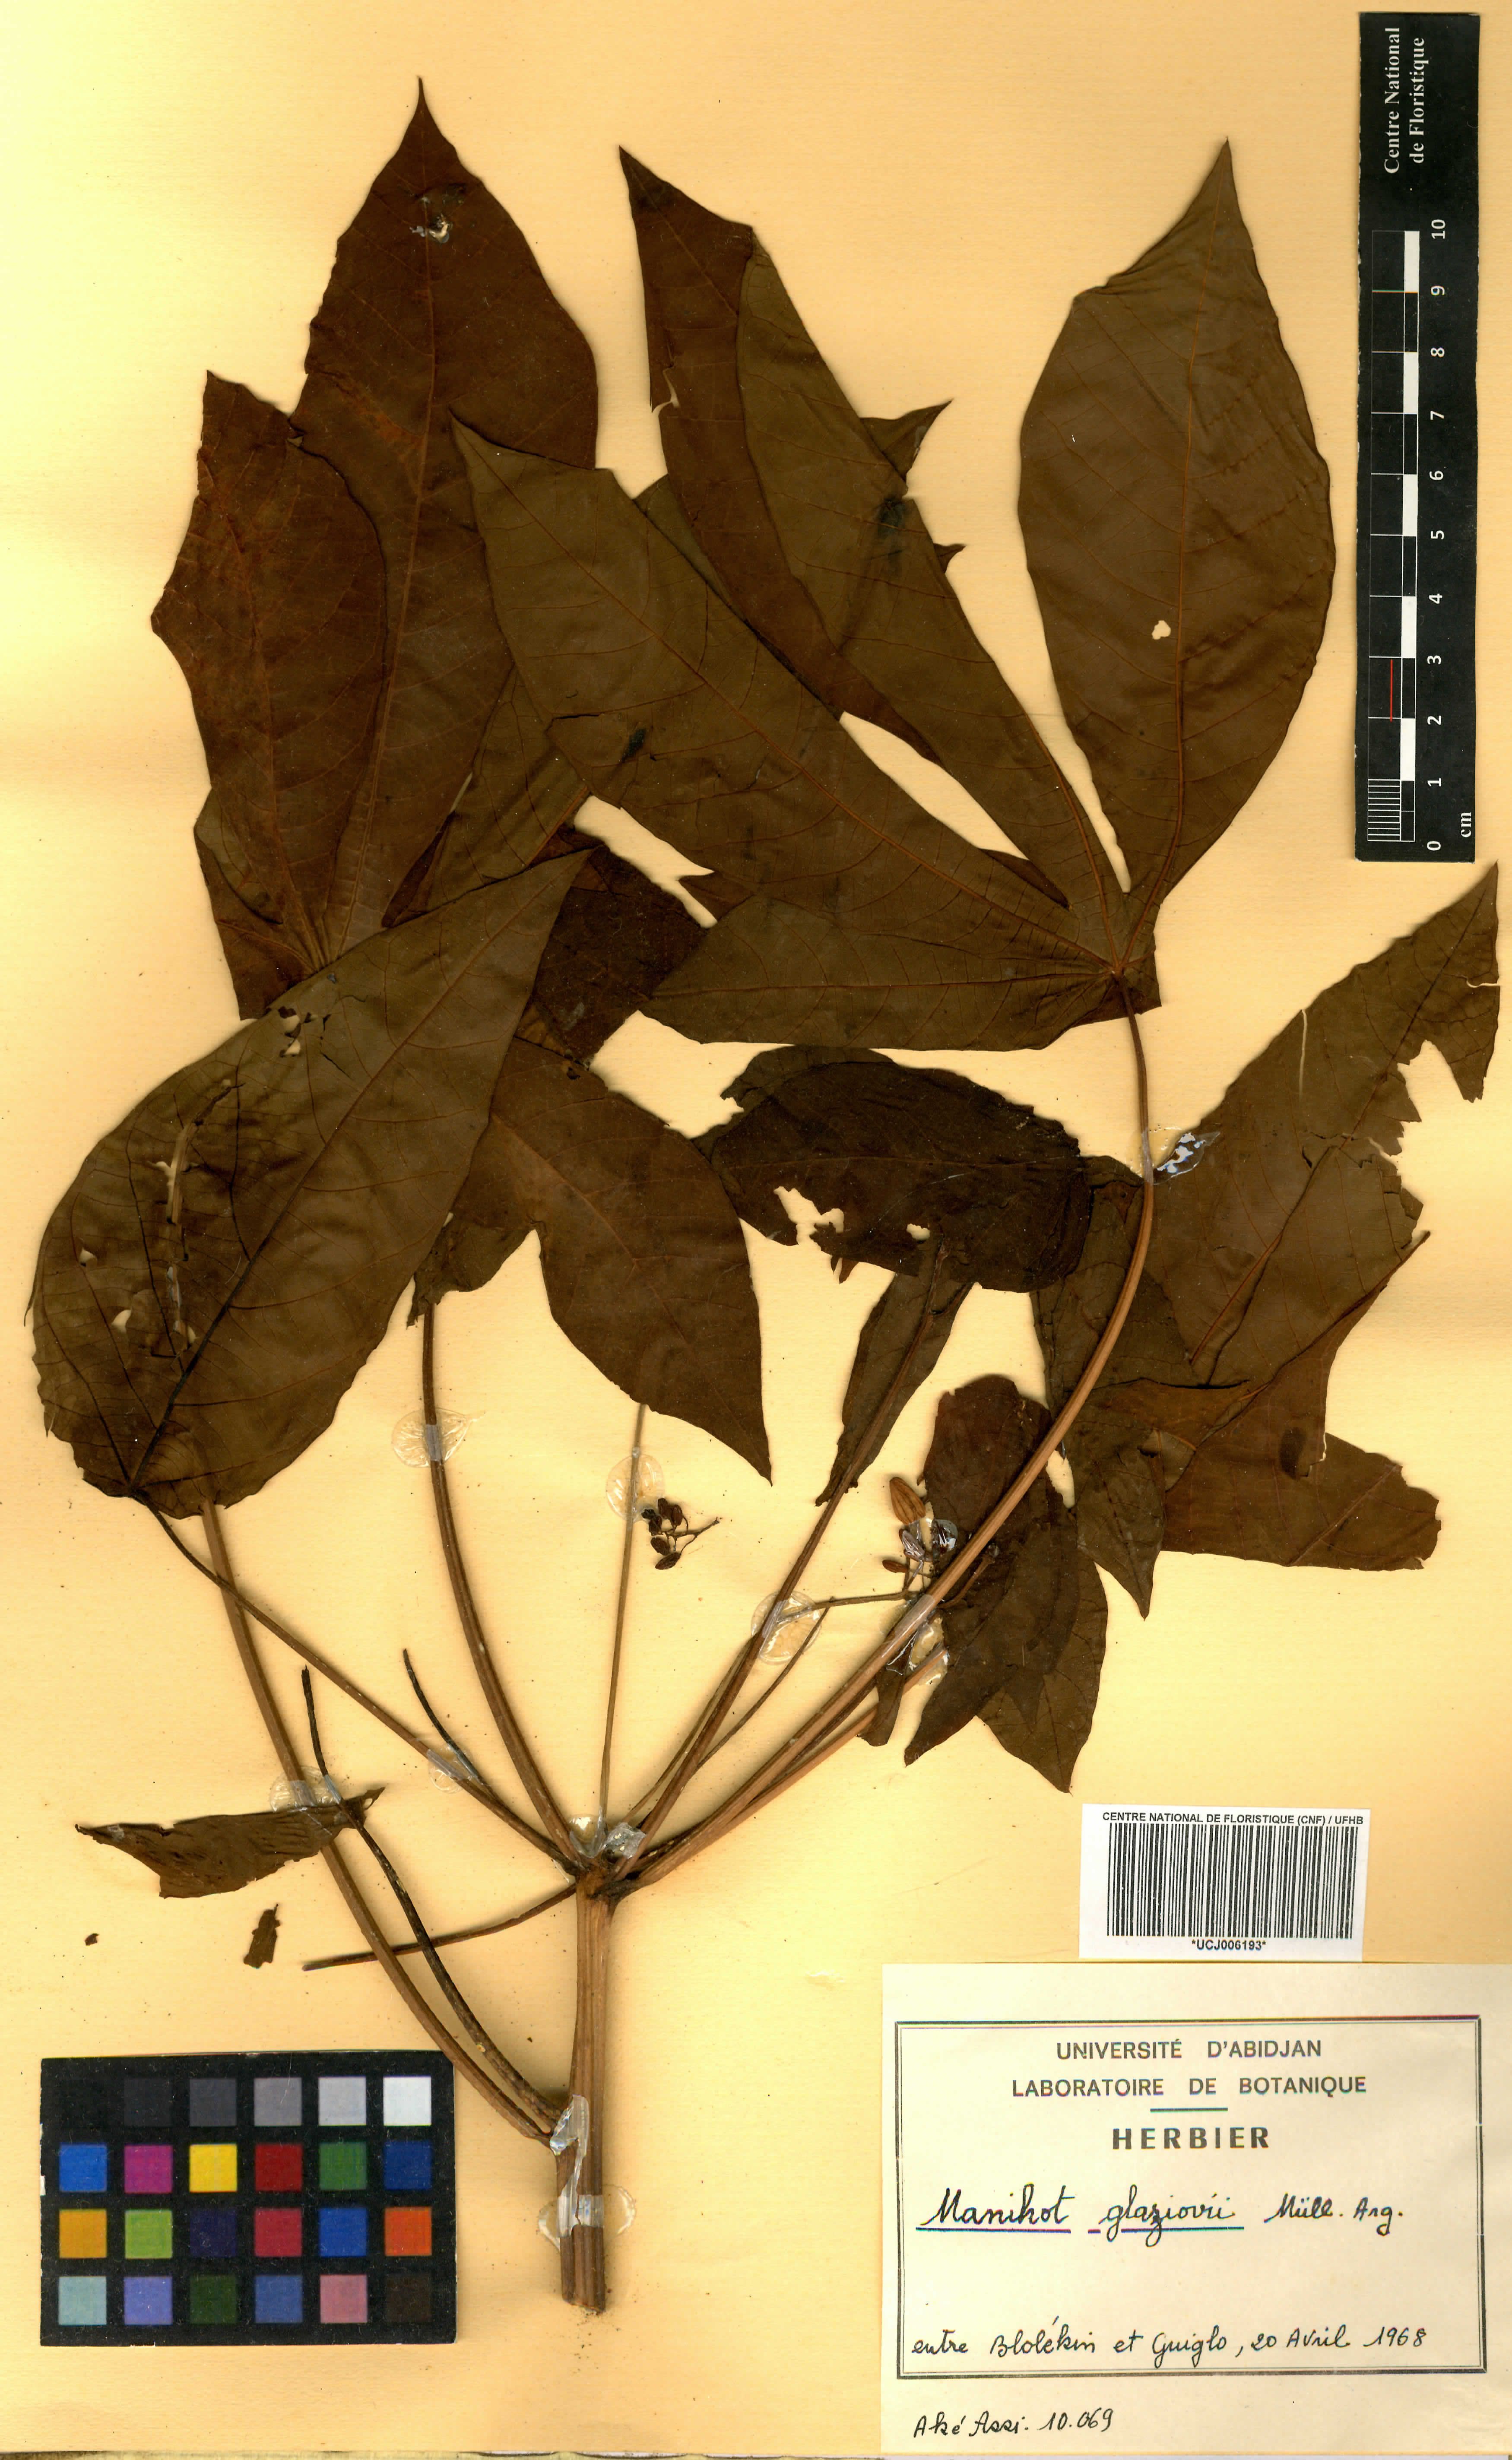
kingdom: Plantae
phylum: Tracheophyta
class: Magnoliopsida
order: Malpighiales
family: Euphorbiaceae
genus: Manihot
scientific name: Manihot carthagenensis
